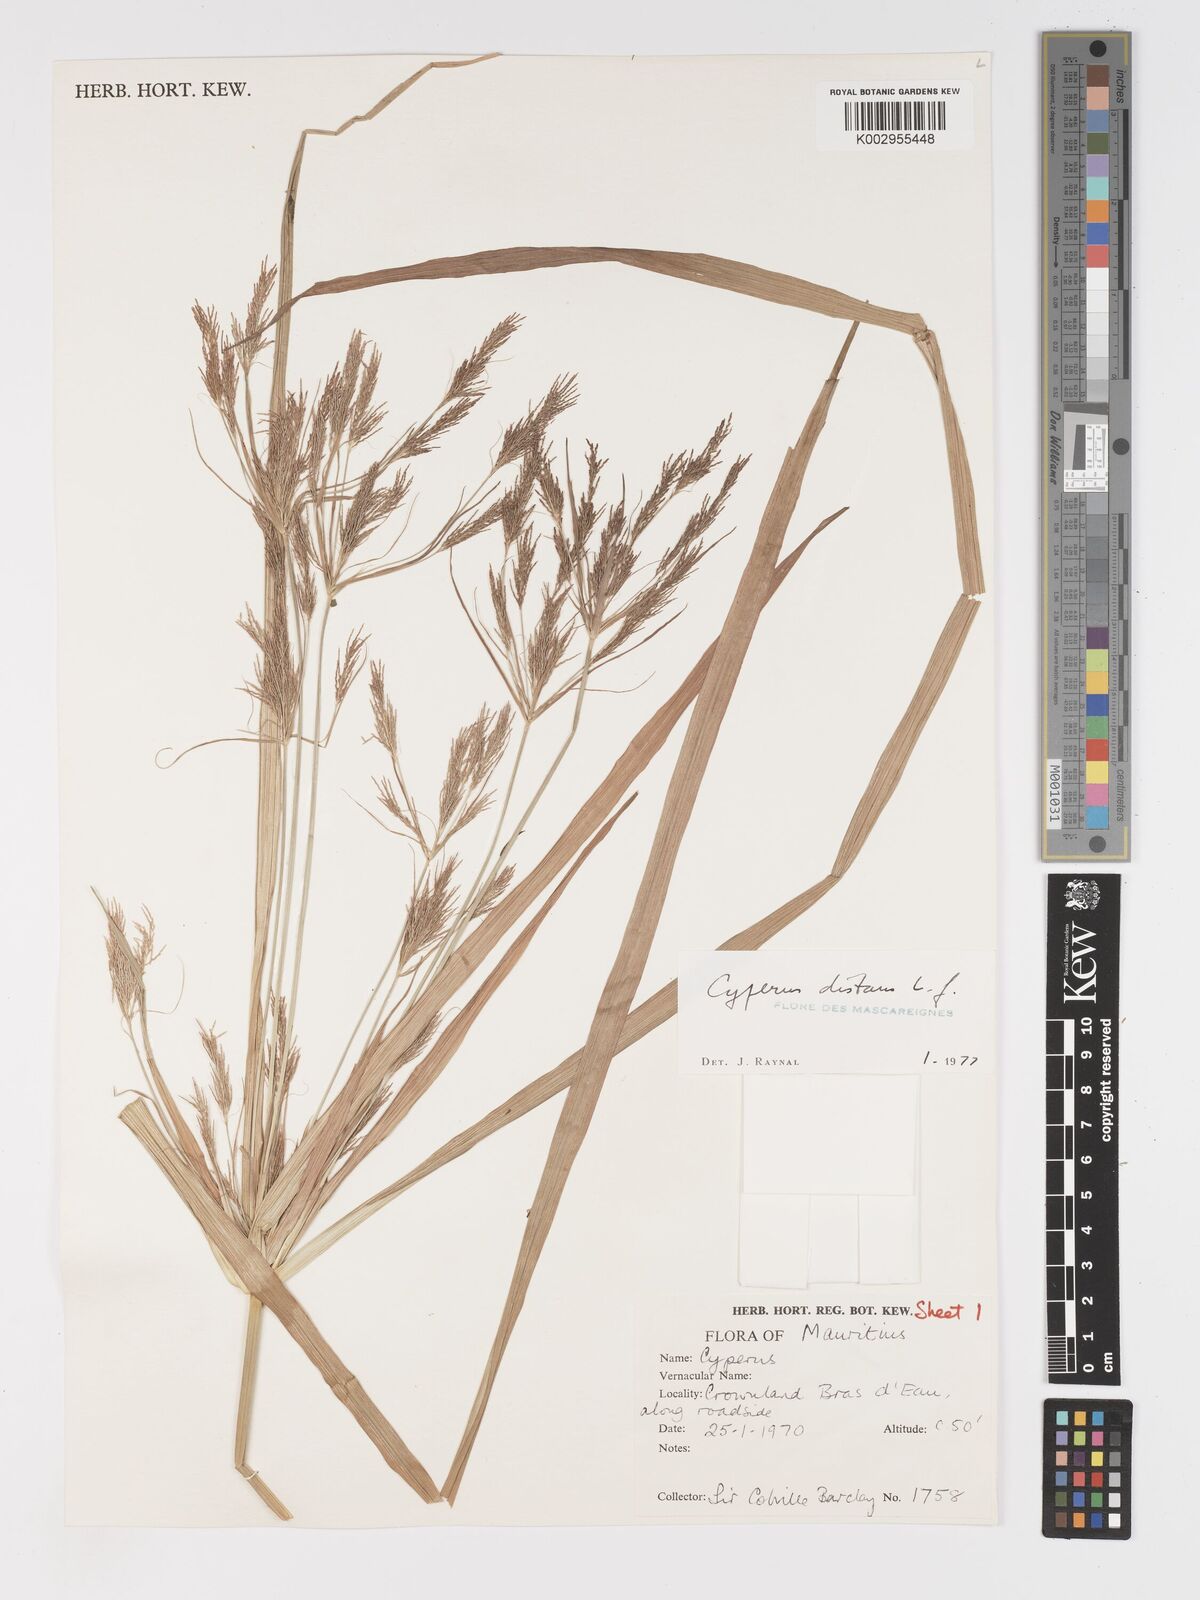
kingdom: Plantae
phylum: Tracheophyta
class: Liliopsida
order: Poales
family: Cyperaceae
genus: Cyperus
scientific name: Cyperus distans
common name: Slender cyperus
